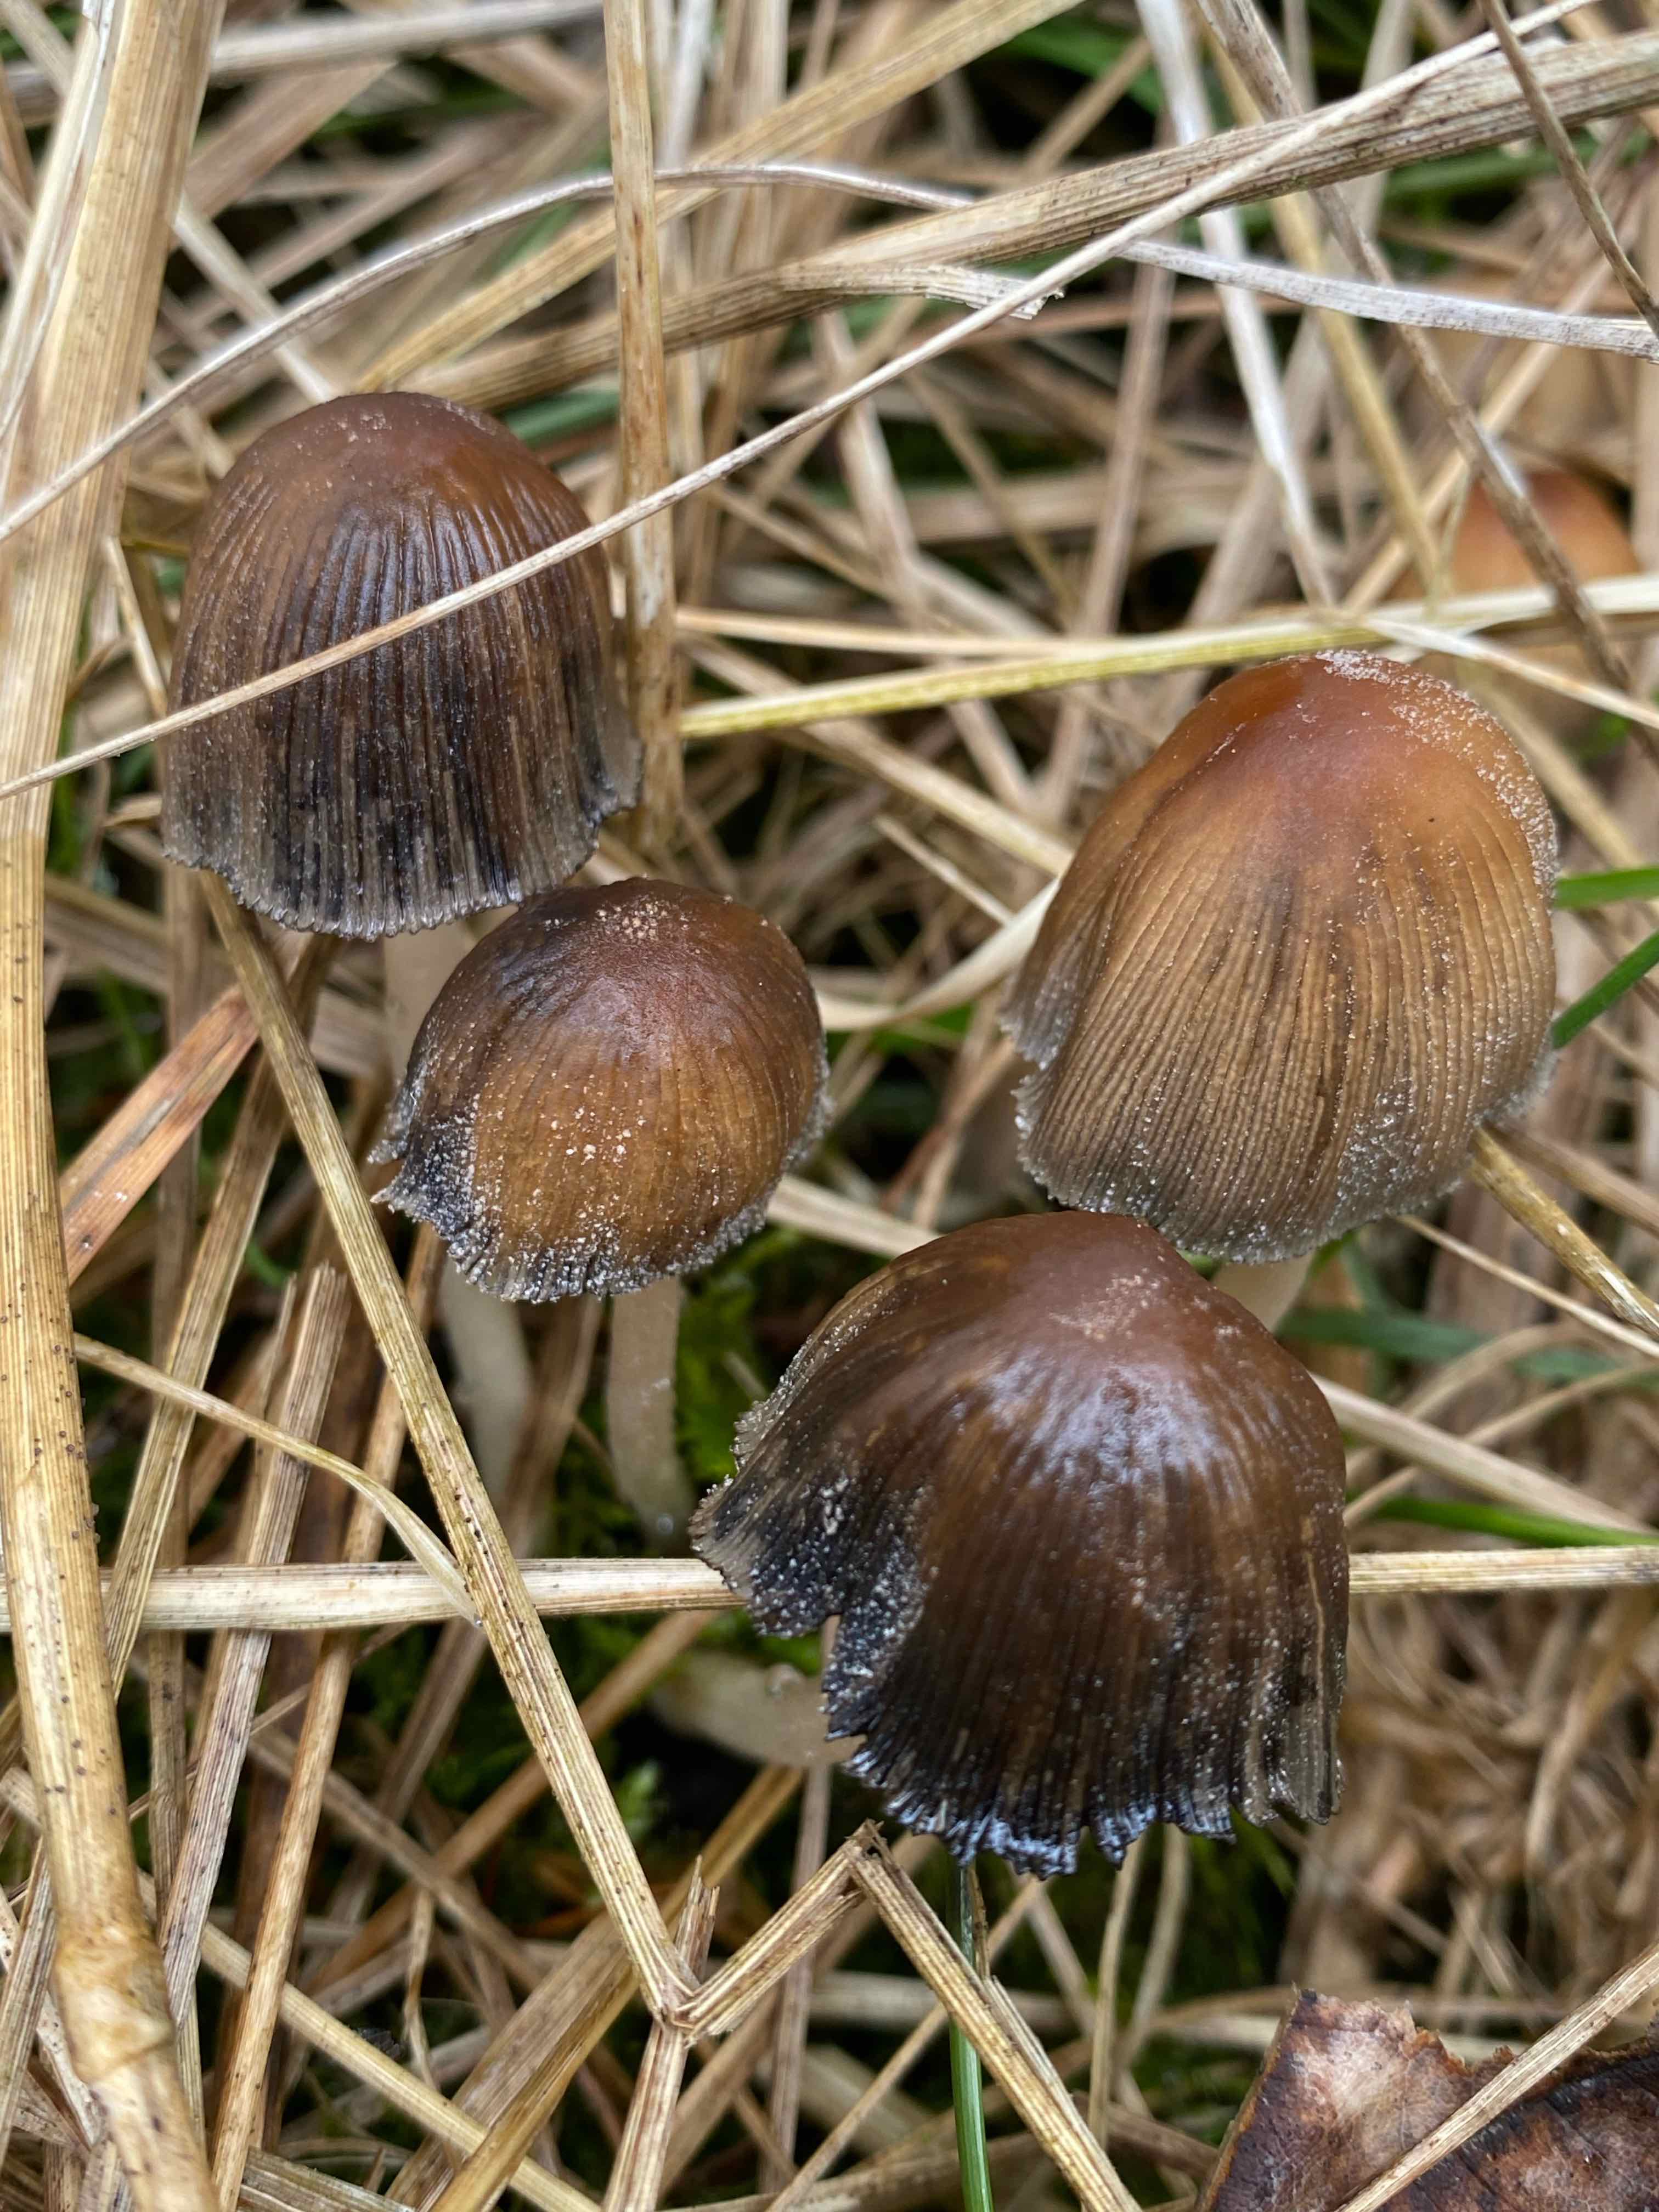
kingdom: Fungi
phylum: Basidiomycota
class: Agaricomycetes
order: Agaricales
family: Psathyrellaceae
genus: Coprinellus
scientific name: Coprinellus micaceus
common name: glimmer-blækhat
